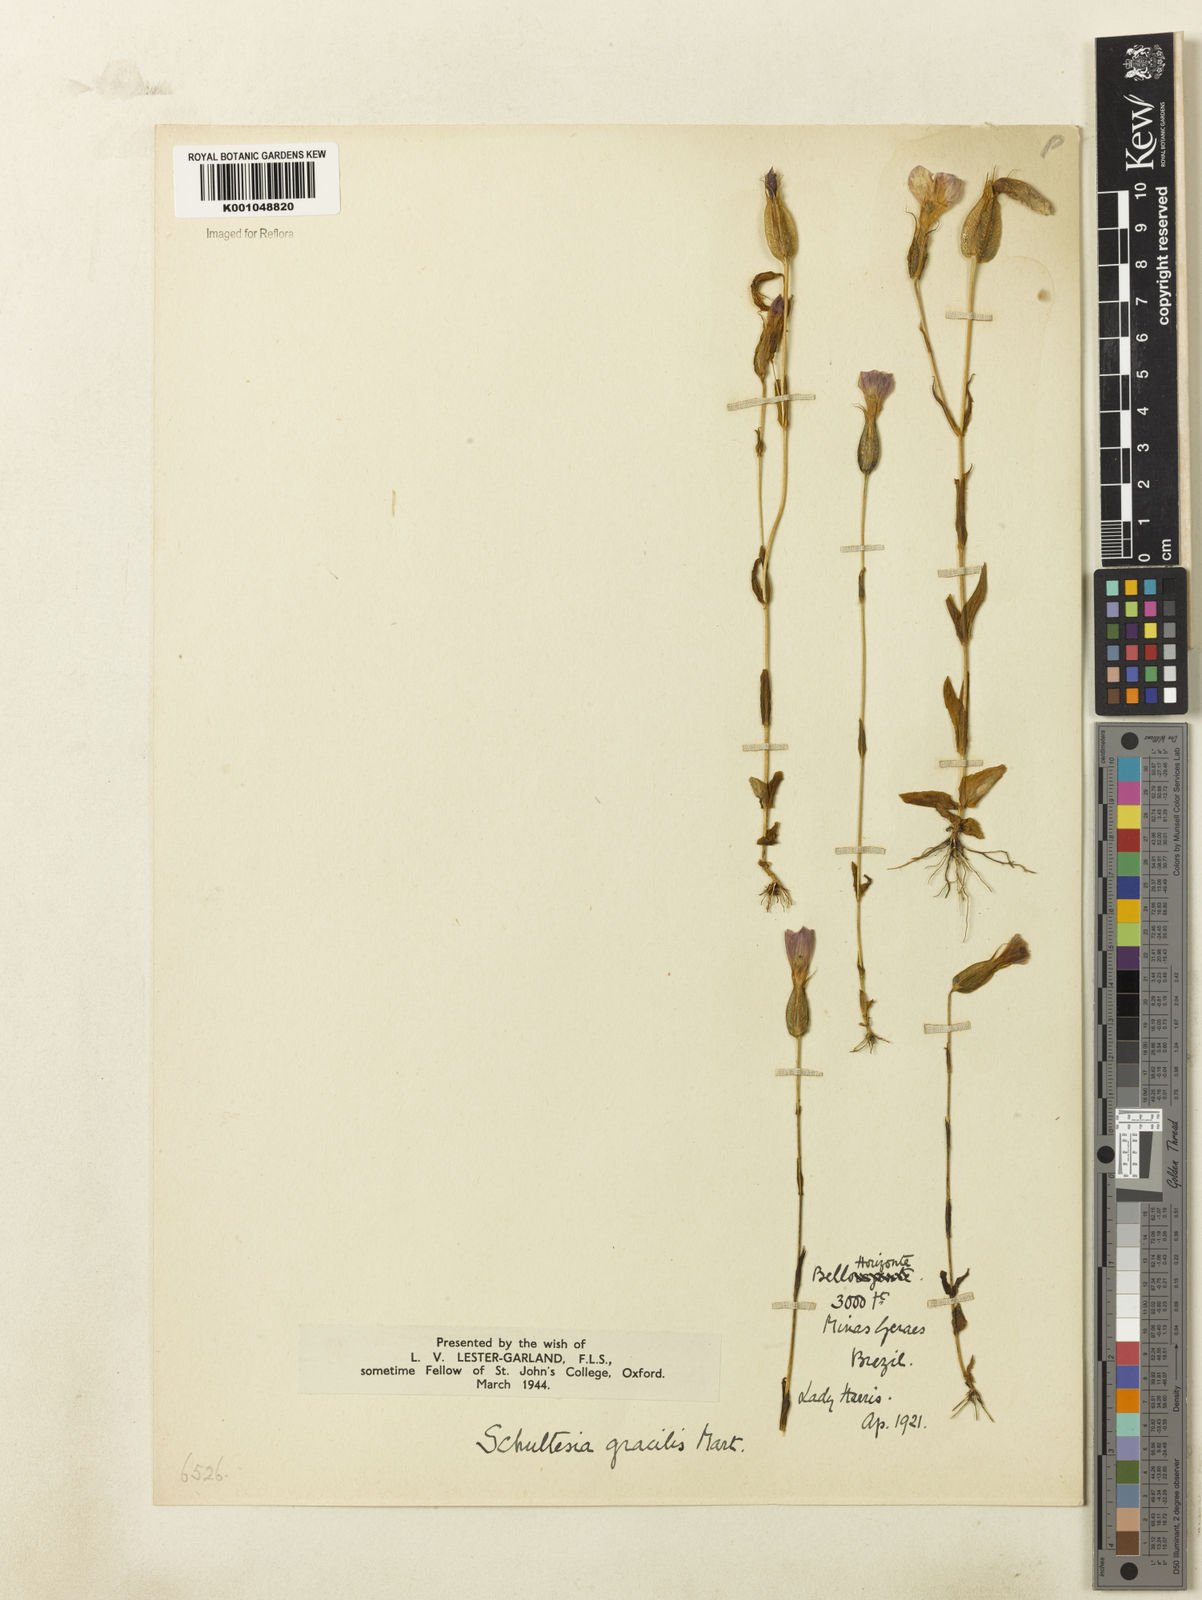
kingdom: Plantae
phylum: Tracheophyta
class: Magnoliopsida
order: Gentianales
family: Gentianaceae
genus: Schultesia
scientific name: Schultesia gracilis
